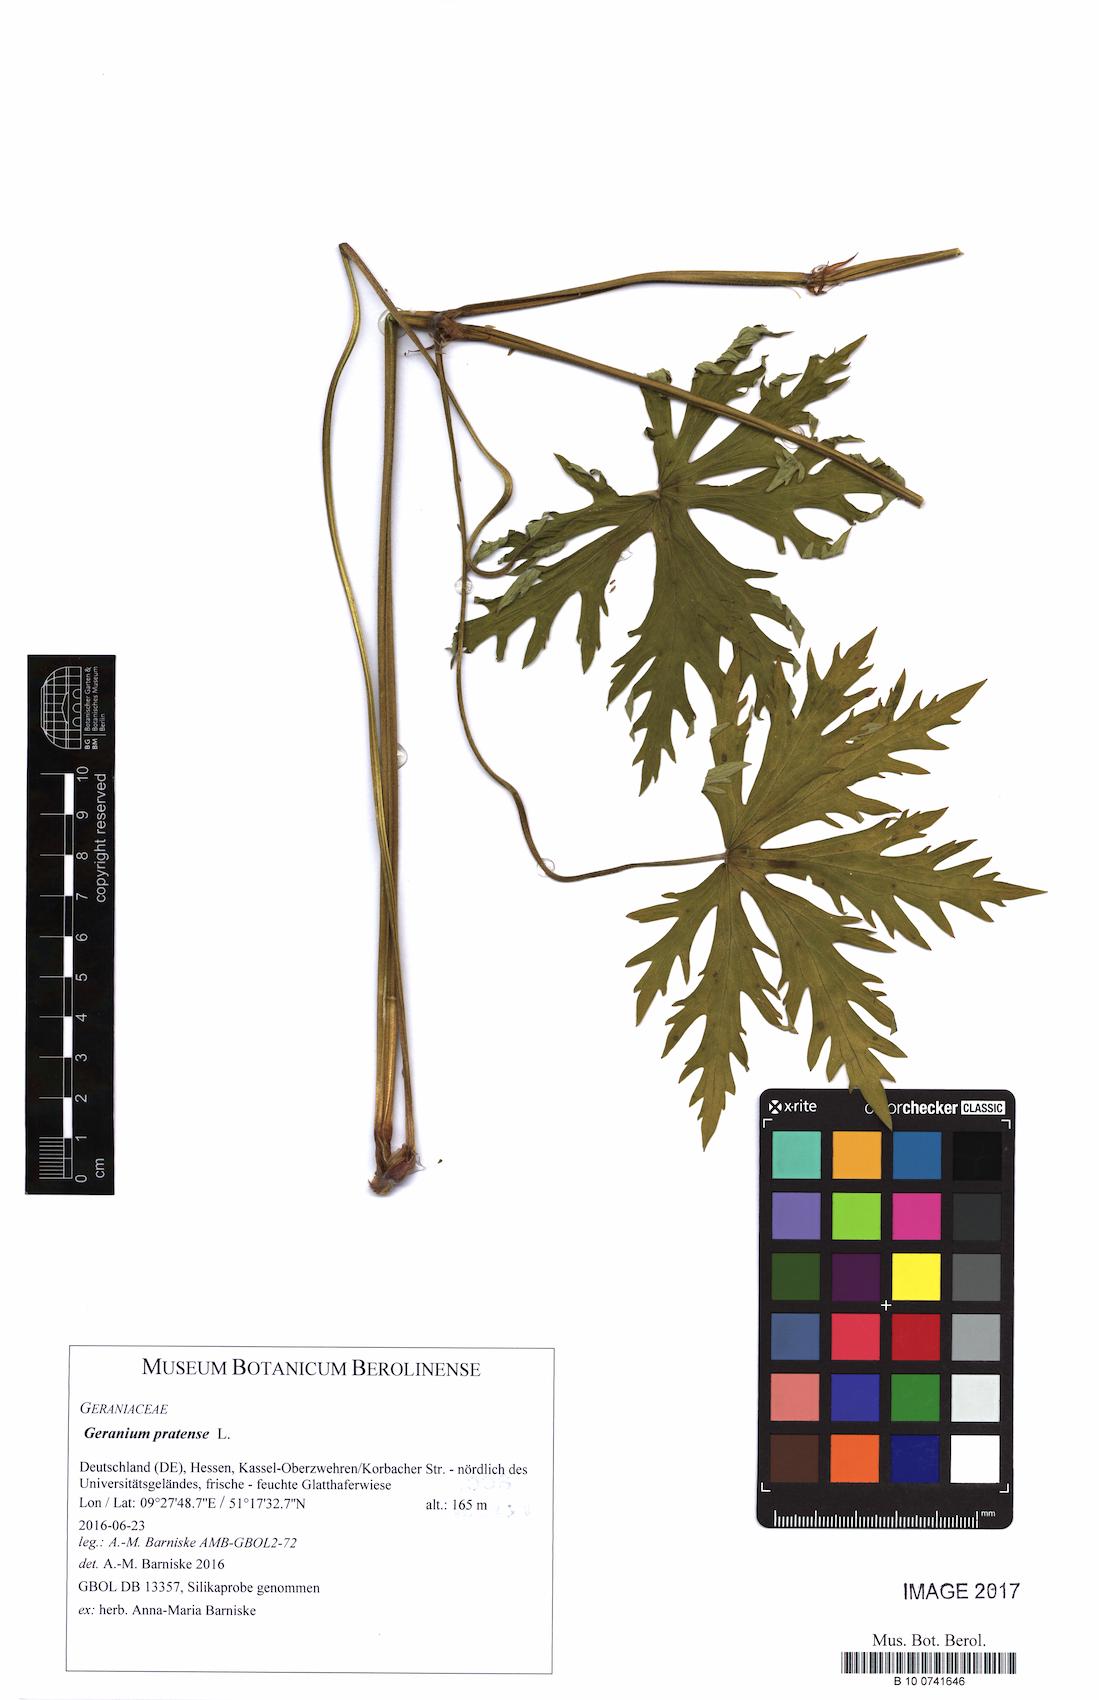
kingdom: Plantae
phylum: Tracheophyta
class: Magnoliopsida
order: Geraniales
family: Geraniaceae
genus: Geranium
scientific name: Geranium pratense
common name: Meadow crane's-bill
